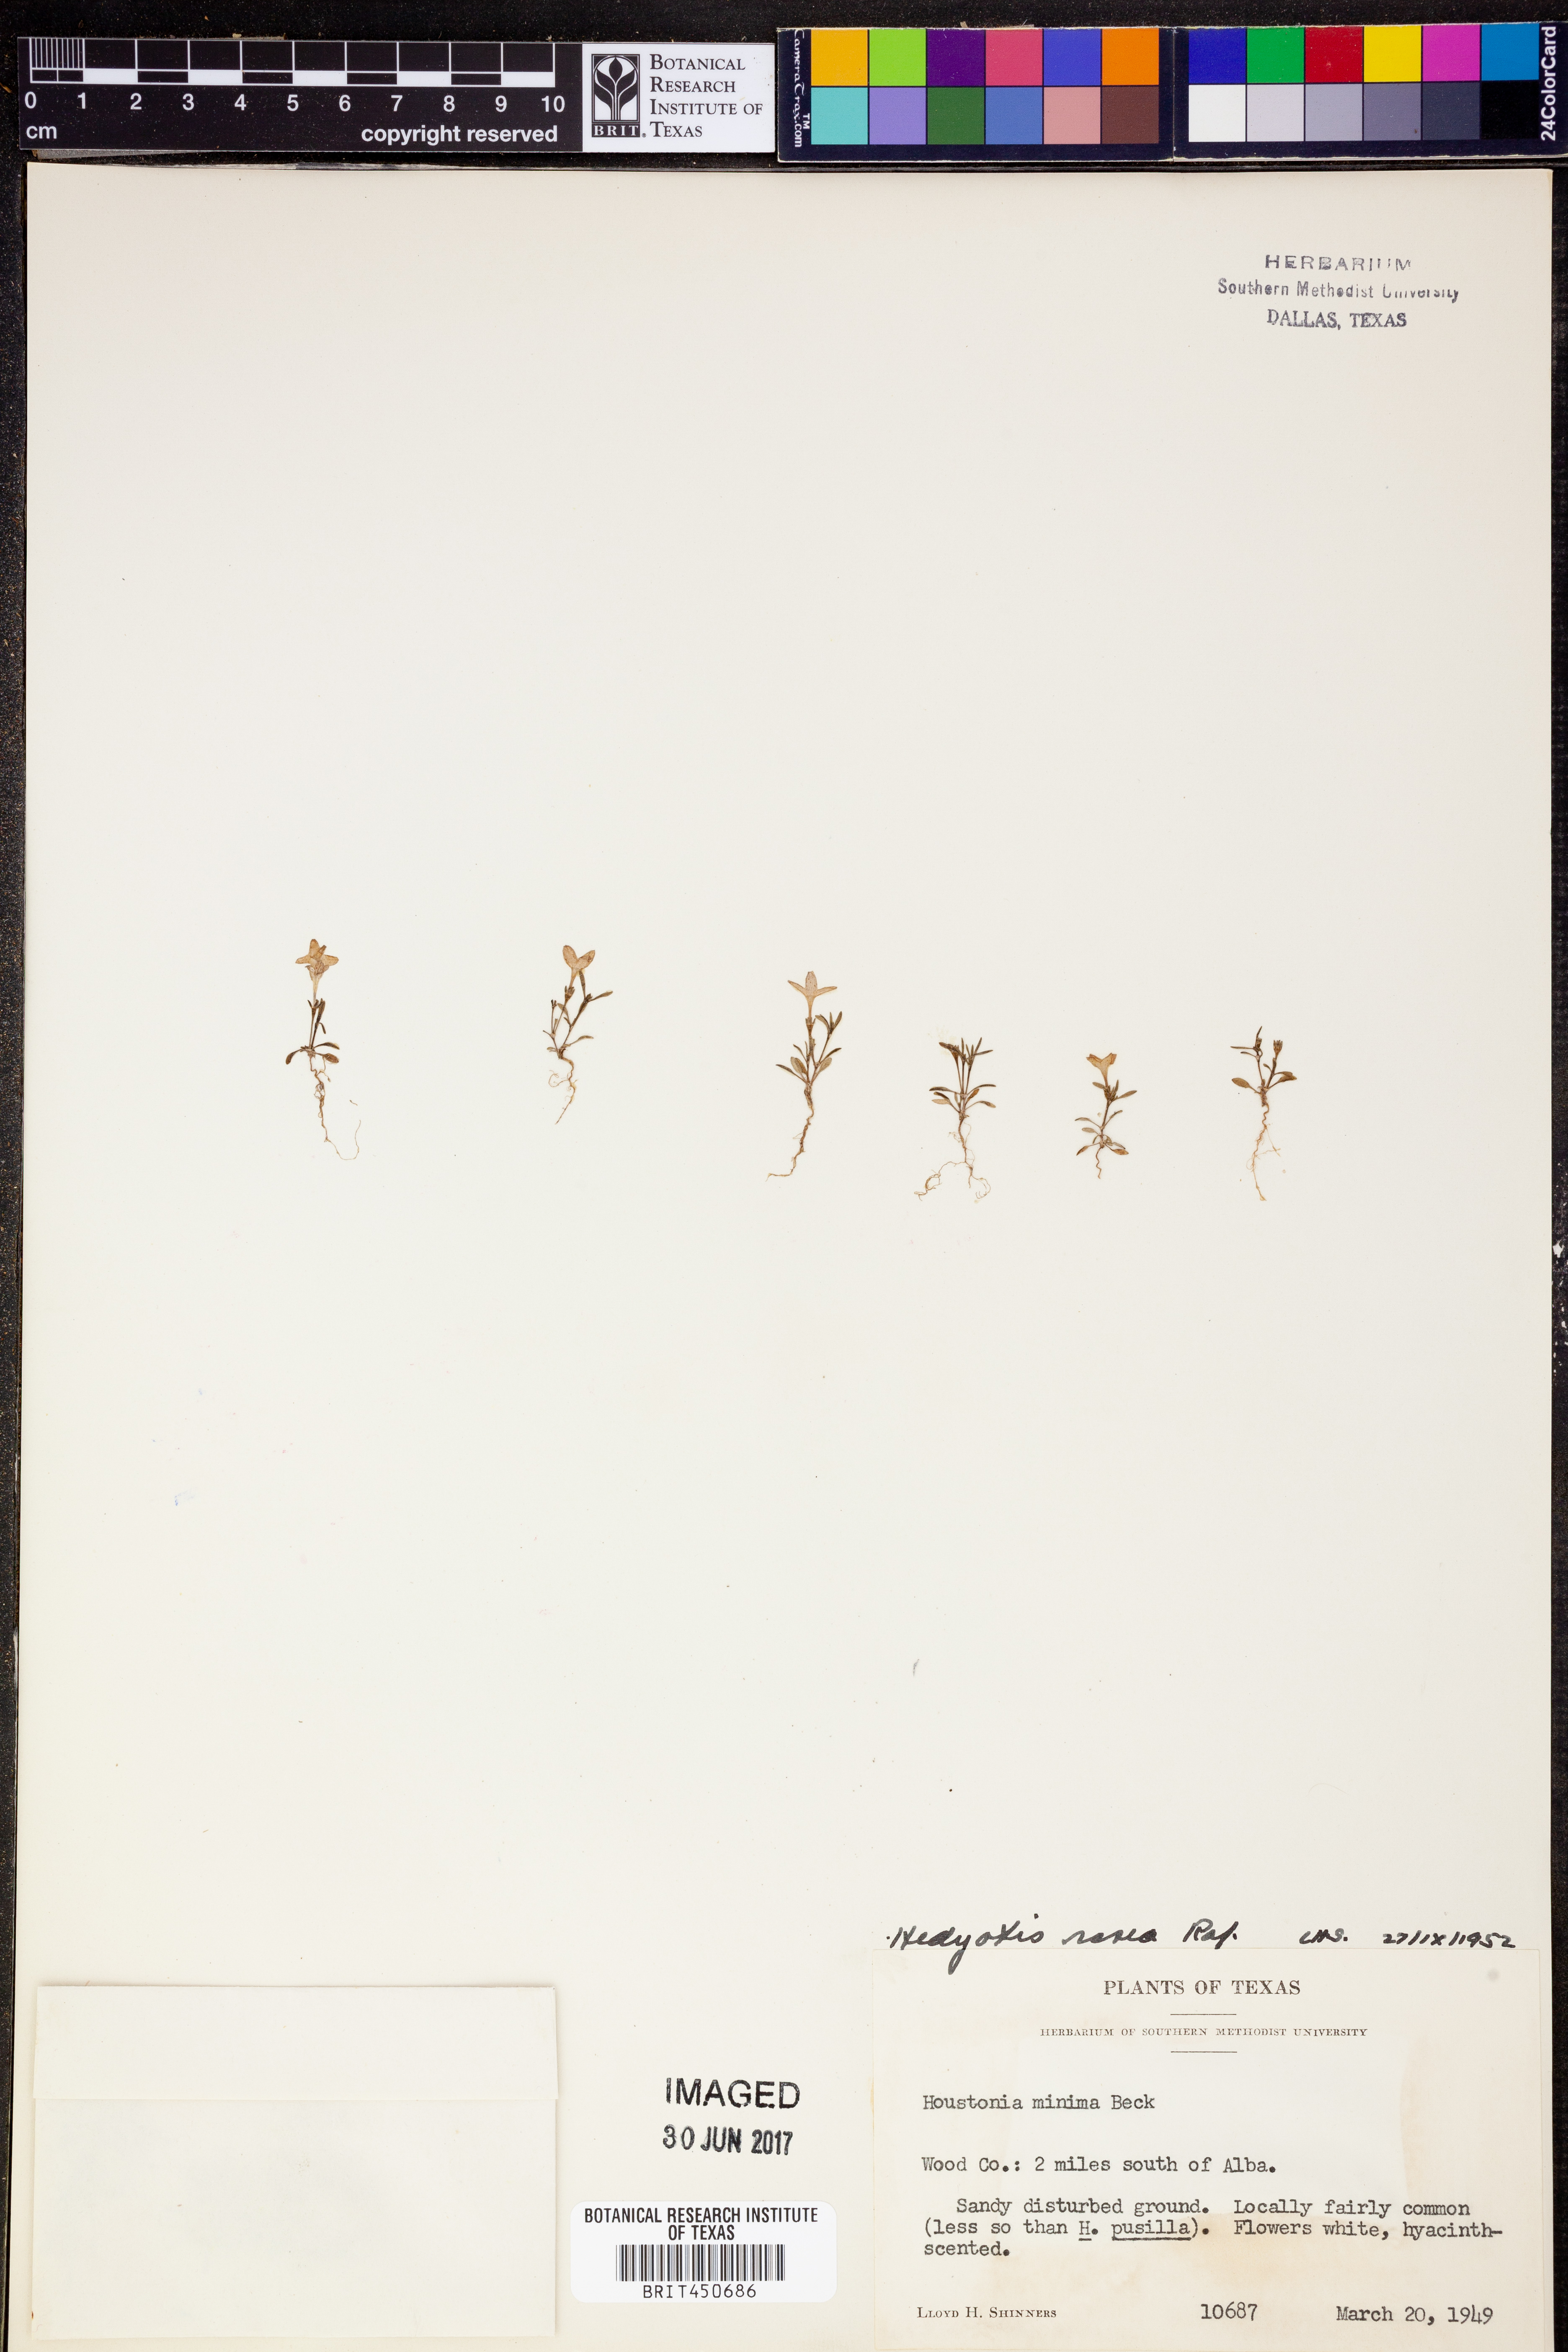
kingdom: Plantae
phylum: Tracheophyta
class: Magnoliopsida
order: Gentianales
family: Rubiaceae
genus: Houstonia
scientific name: Houstonia rosea
